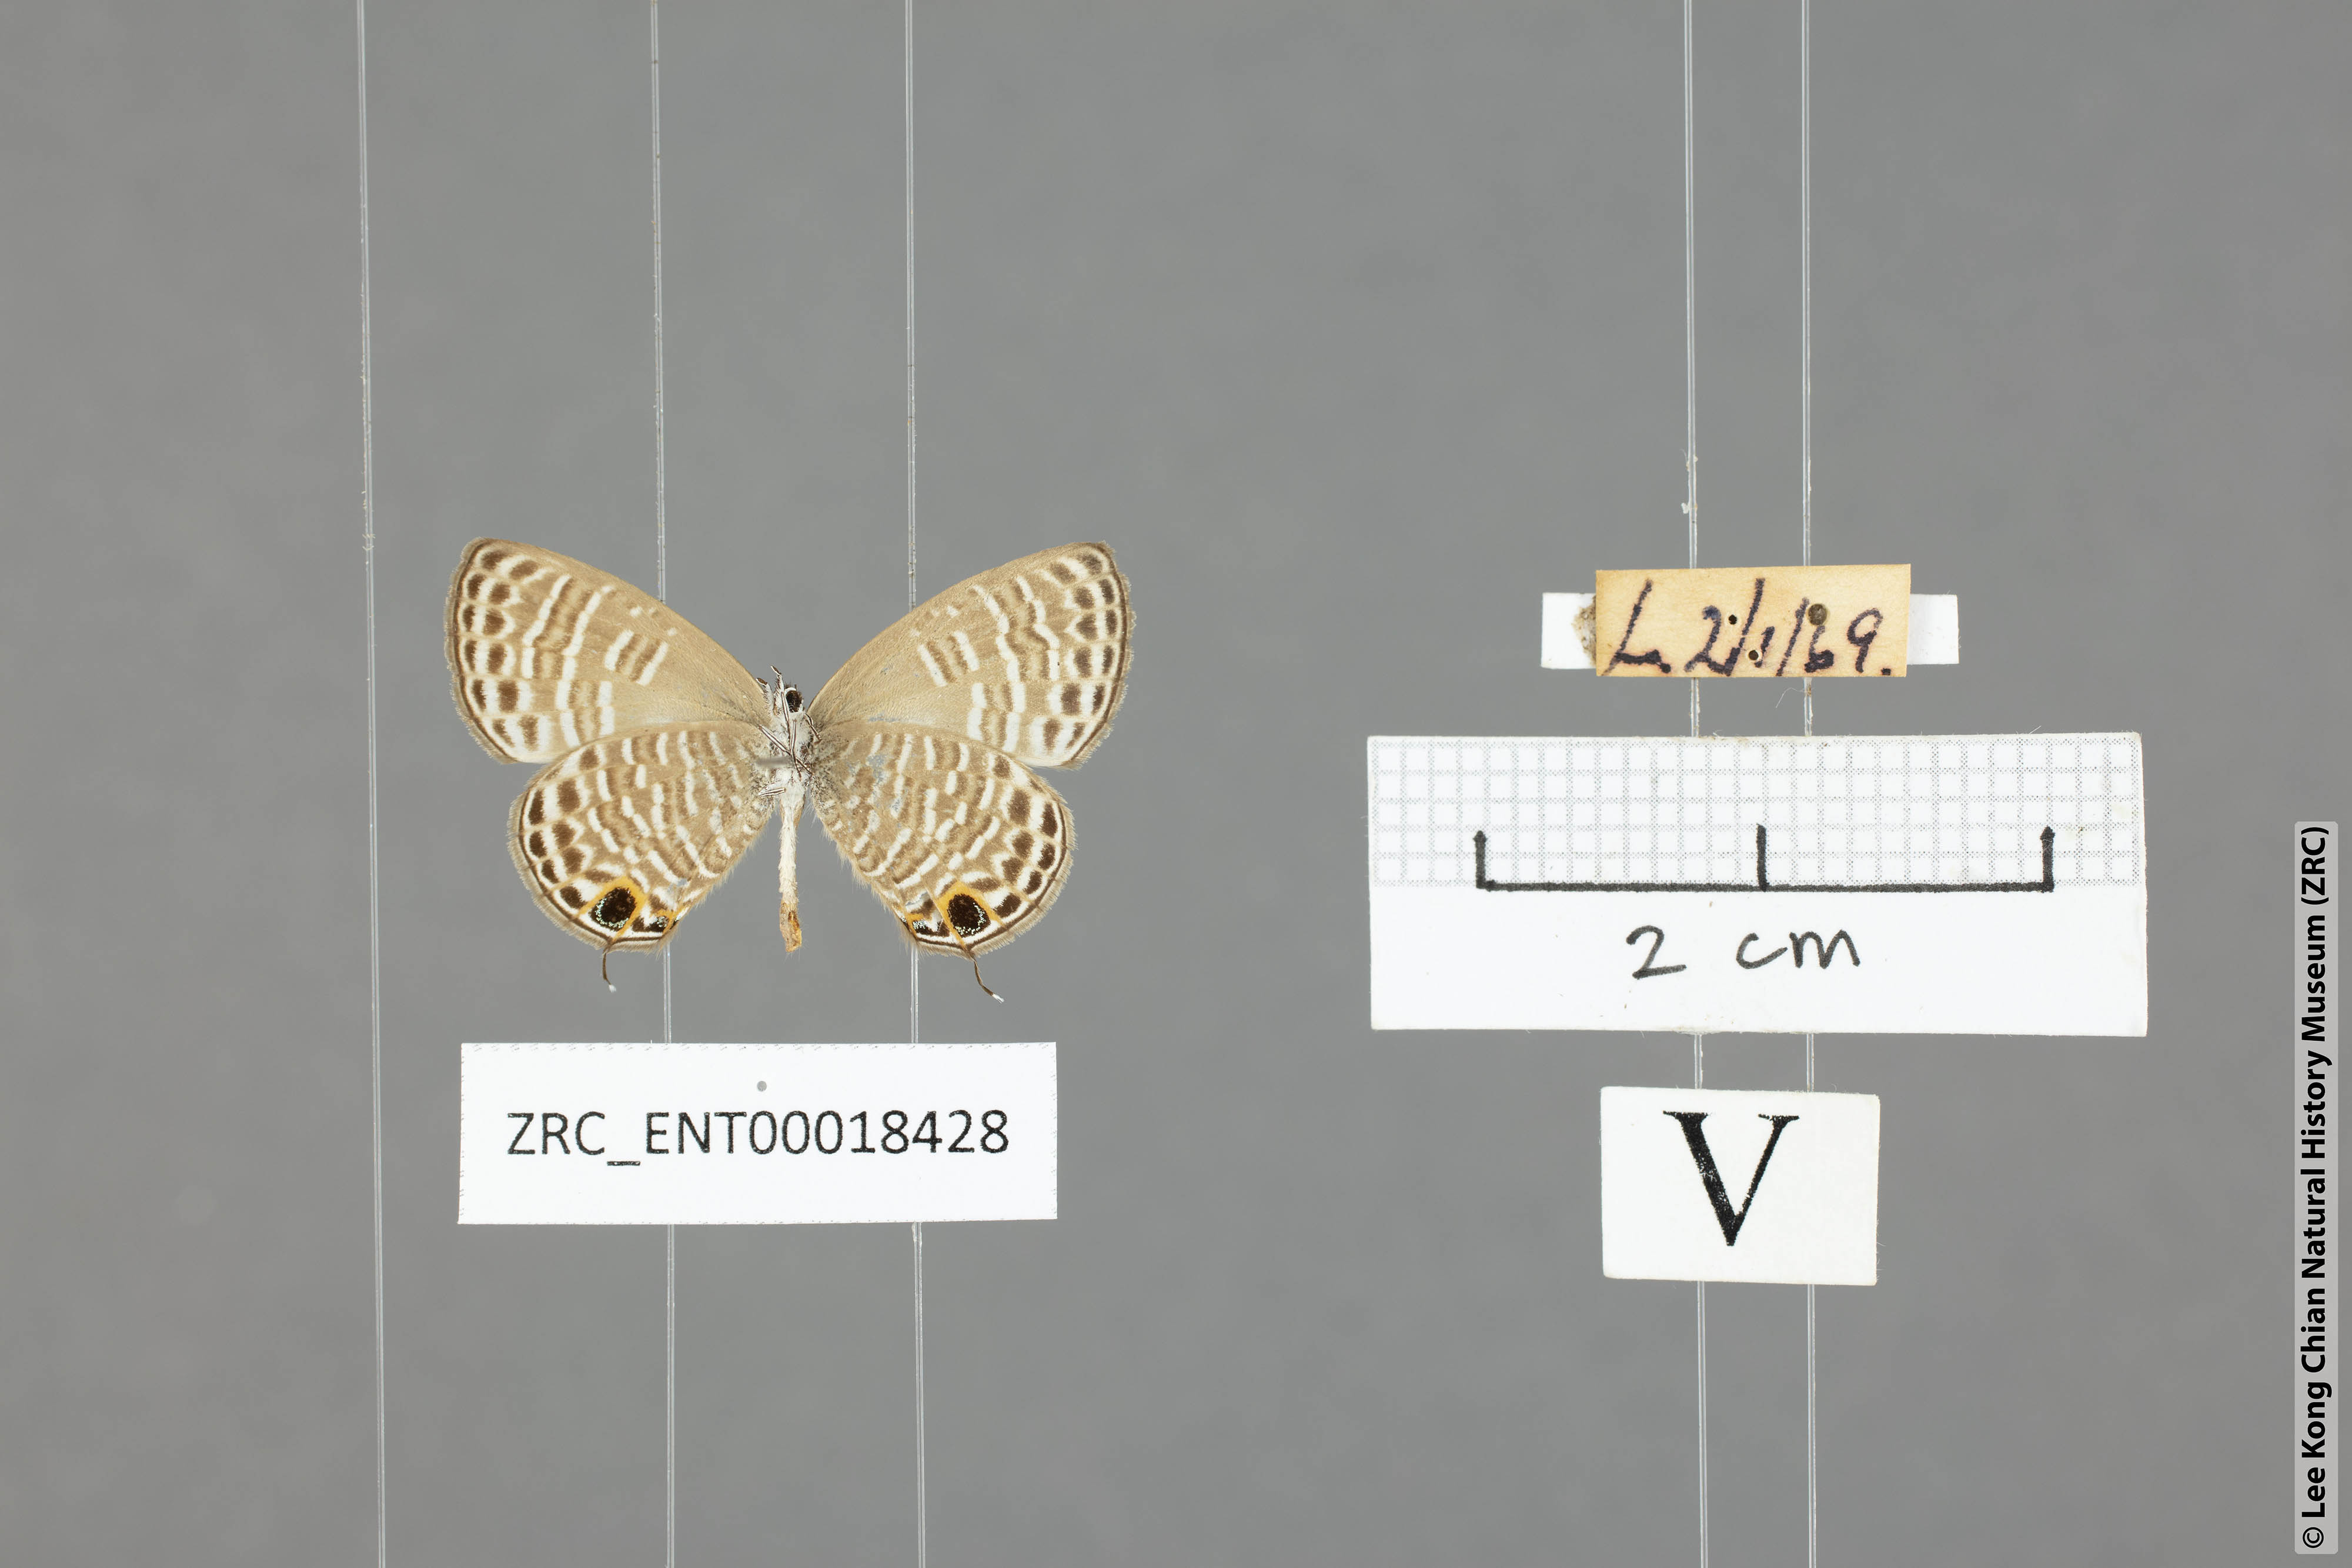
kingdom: Animalia
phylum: Arthropoda
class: Insecta
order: Lepidoptera
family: Lycaenidae
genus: Nacaduba
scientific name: Nacaduba pavana
